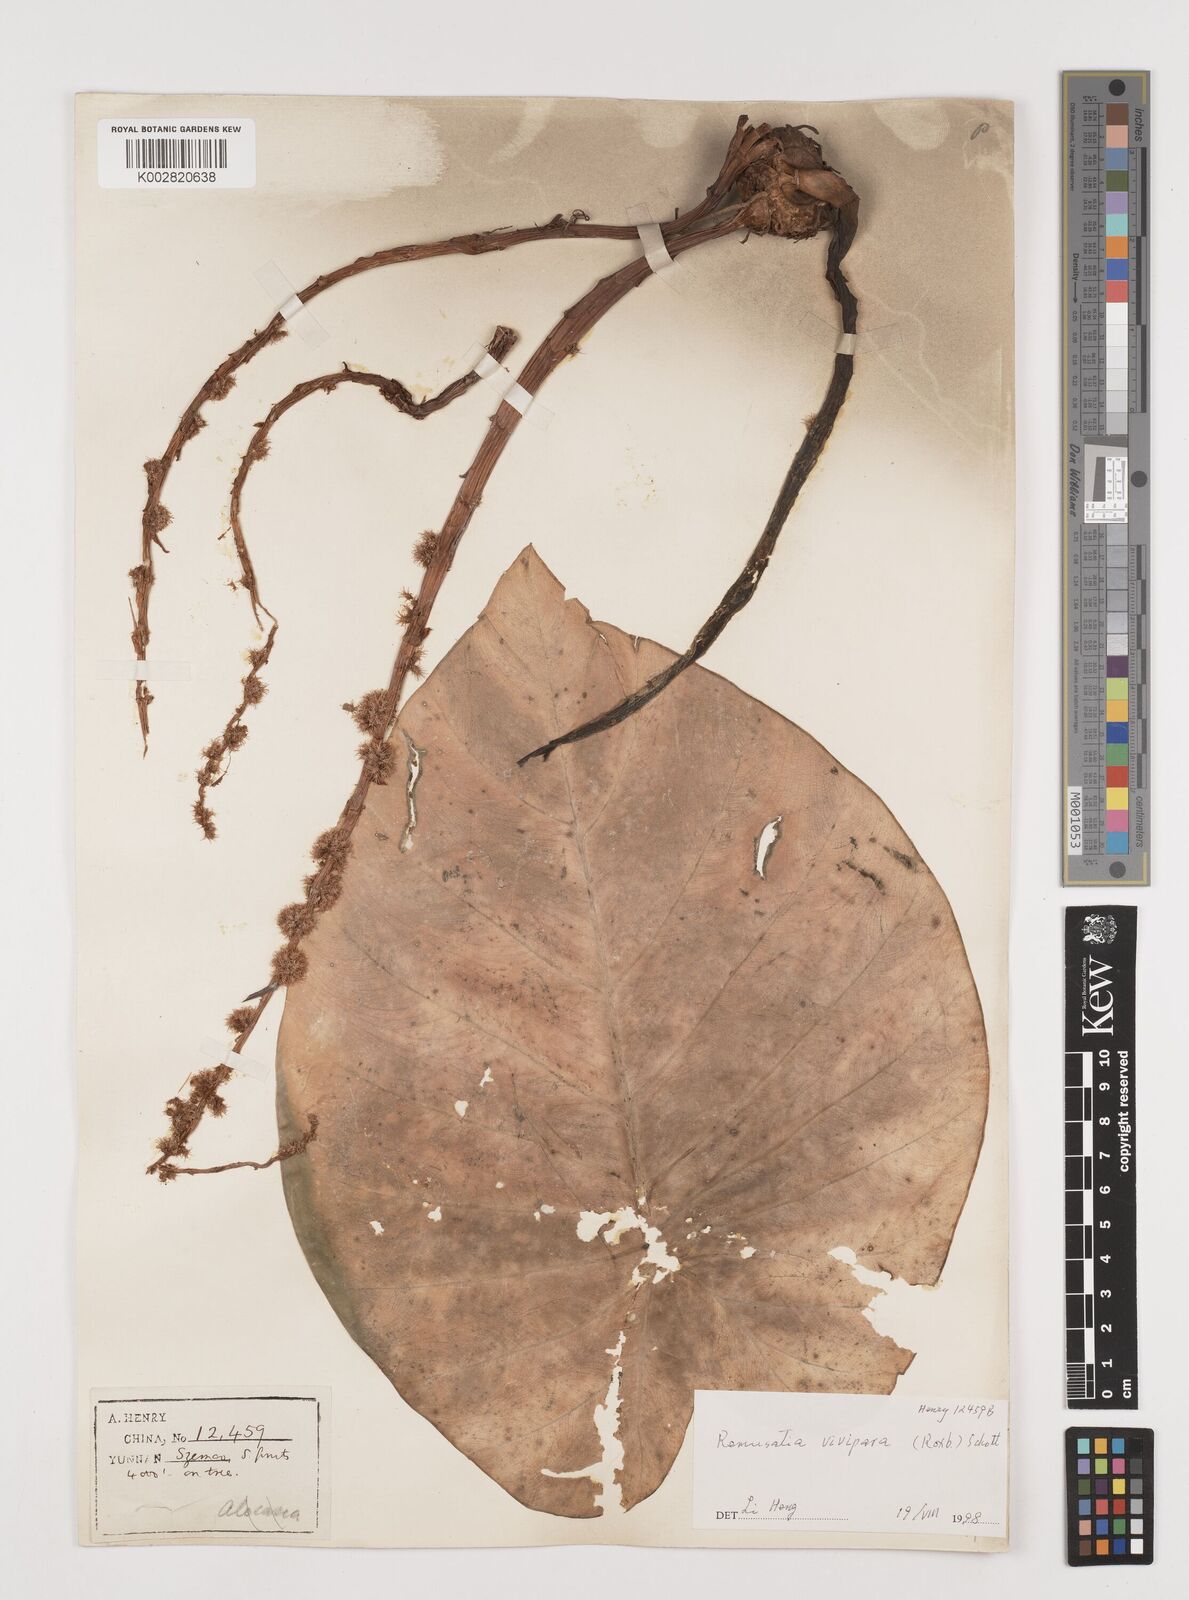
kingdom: Plantae
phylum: Tracheophyta
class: Liliopsida
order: Alismatales
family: Araceae
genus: Remusatia
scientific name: Remusatia vivipara
